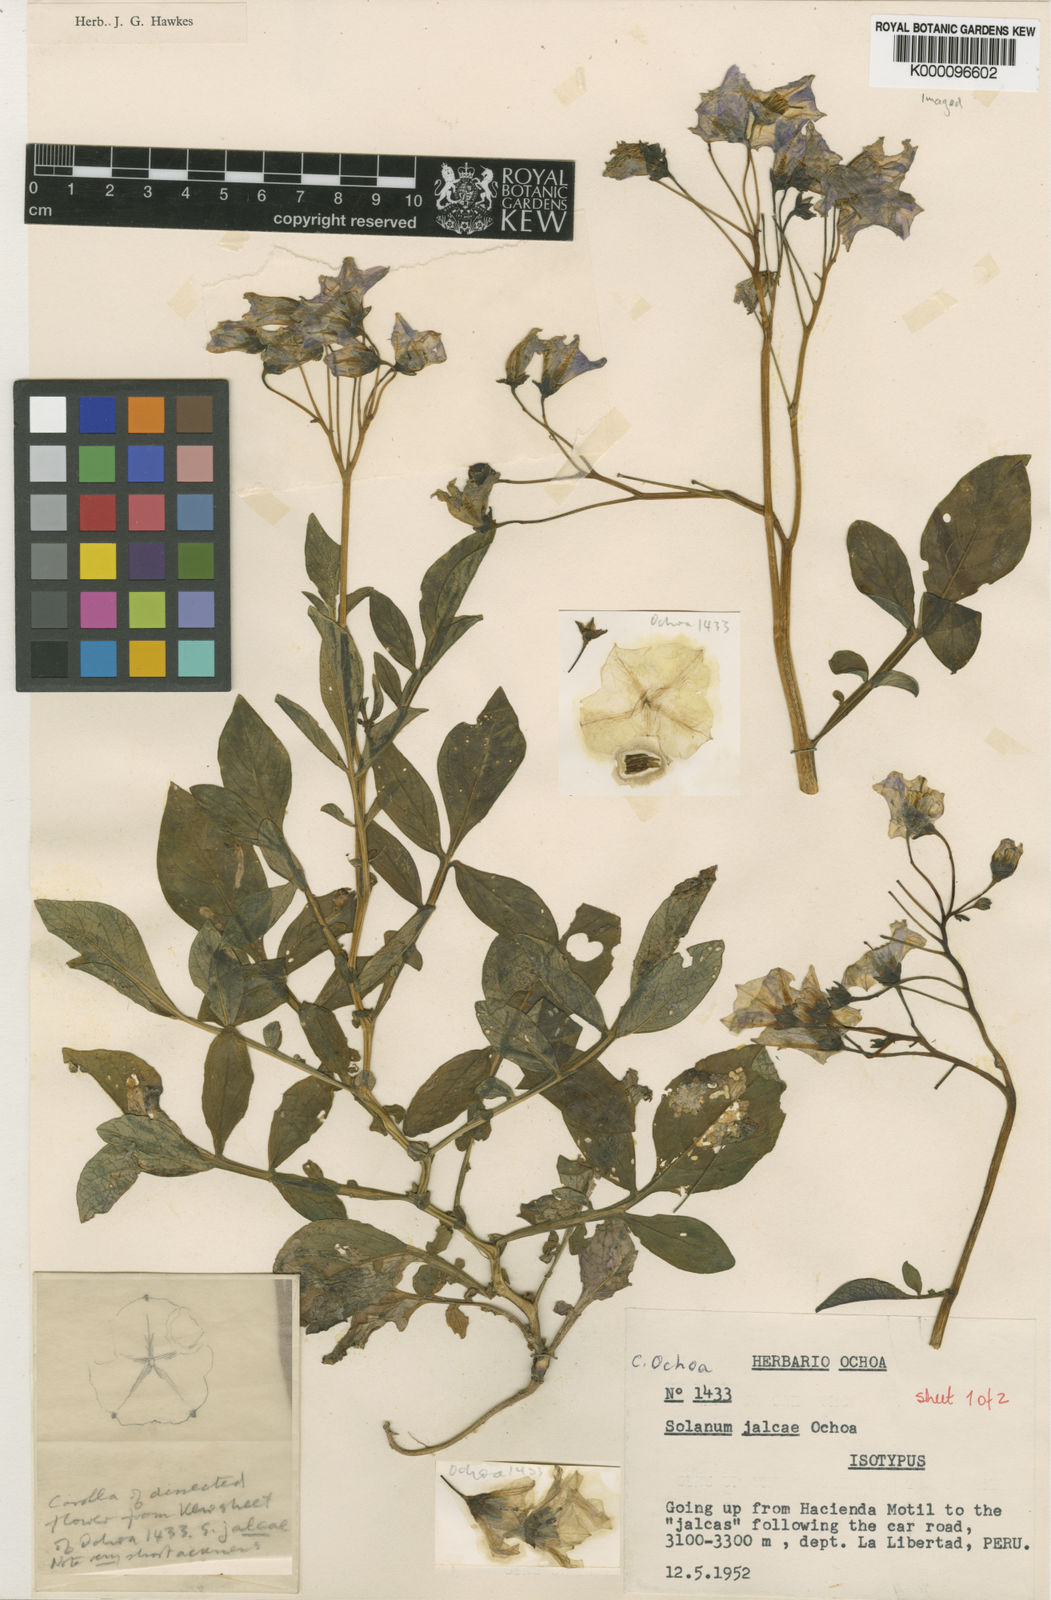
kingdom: Plantae
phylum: Tracheophyta
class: Magnoliopsida
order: Solanales
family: Solanaceae
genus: Solanum
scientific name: Solanum chomatophilum
